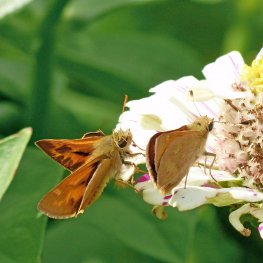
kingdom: Animalia
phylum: Arthropoda
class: Insecta
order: Lepidoptera
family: Hesperiidae
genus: Ochlodes
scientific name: Ochlodes sylvanoides
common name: Woodland Skipper
